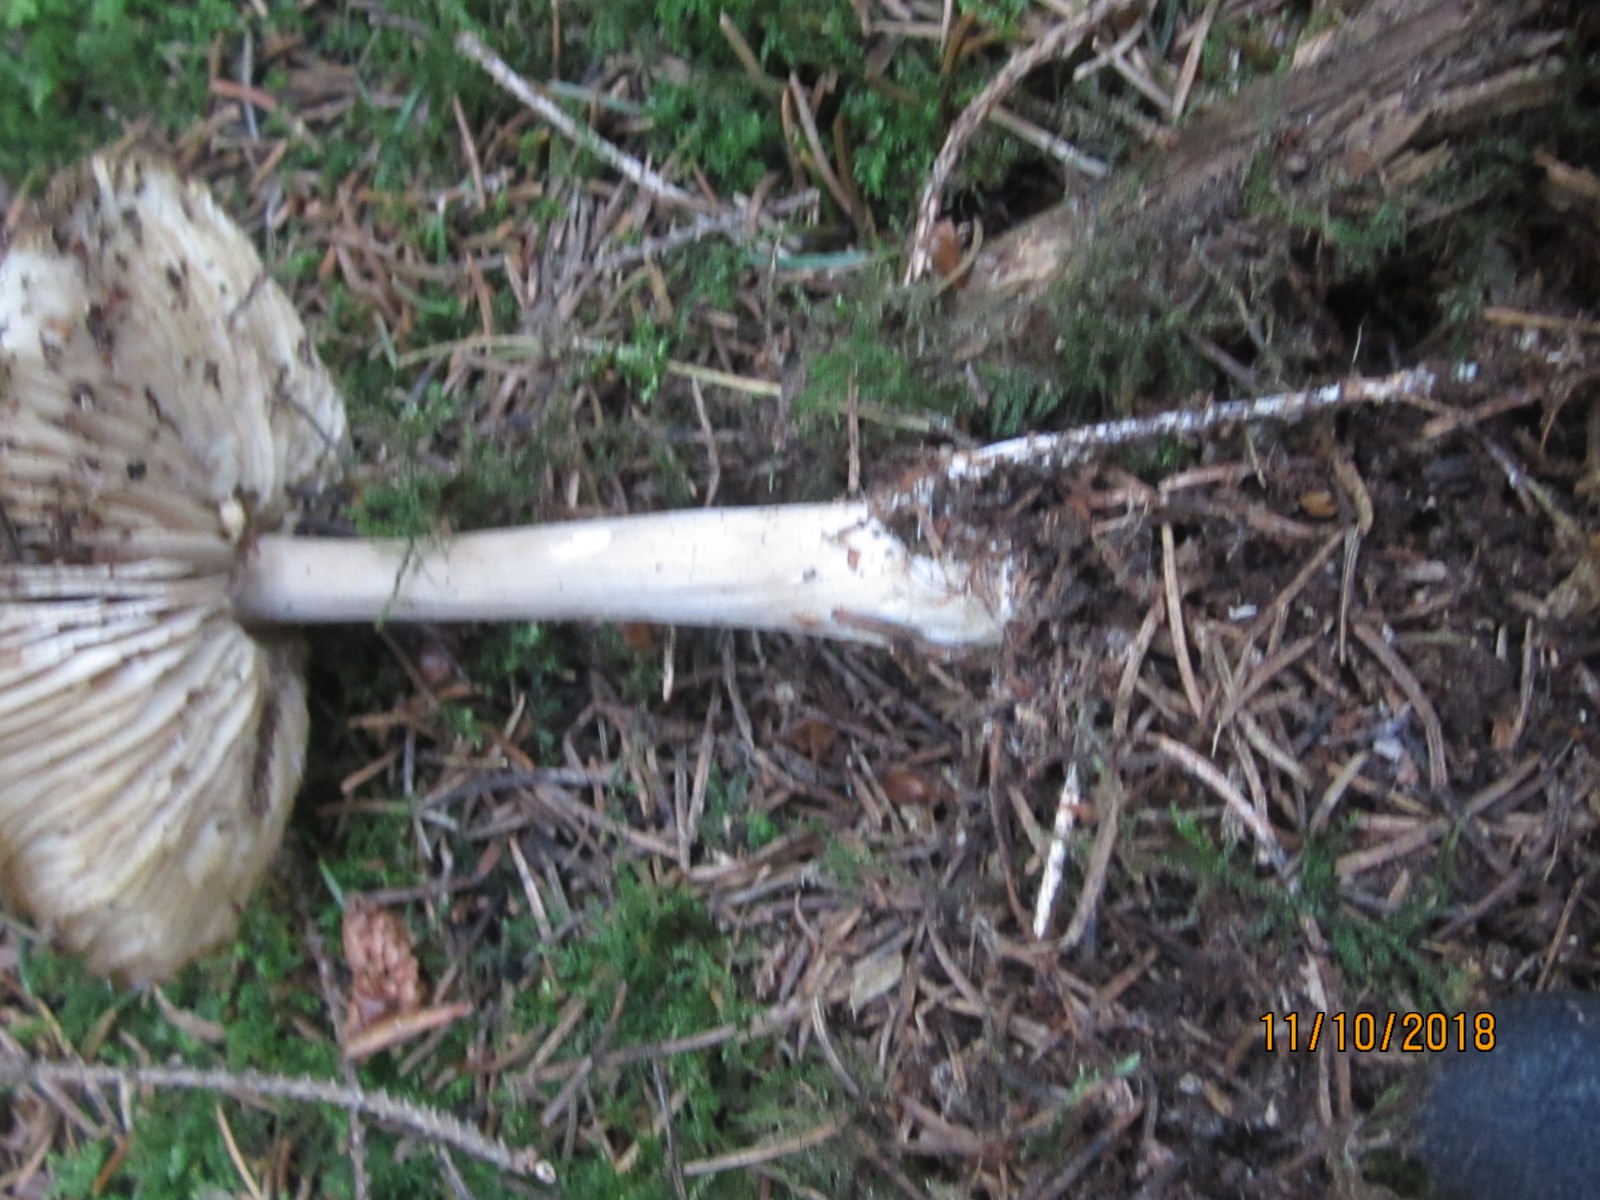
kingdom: Fungi
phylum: Basidiomycota
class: Agaricomycetes
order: Agaricales
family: Tricholomataceae
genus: Megacollybia
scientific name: Megacollybia platyphylla
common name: bredbladet væbnerhat
